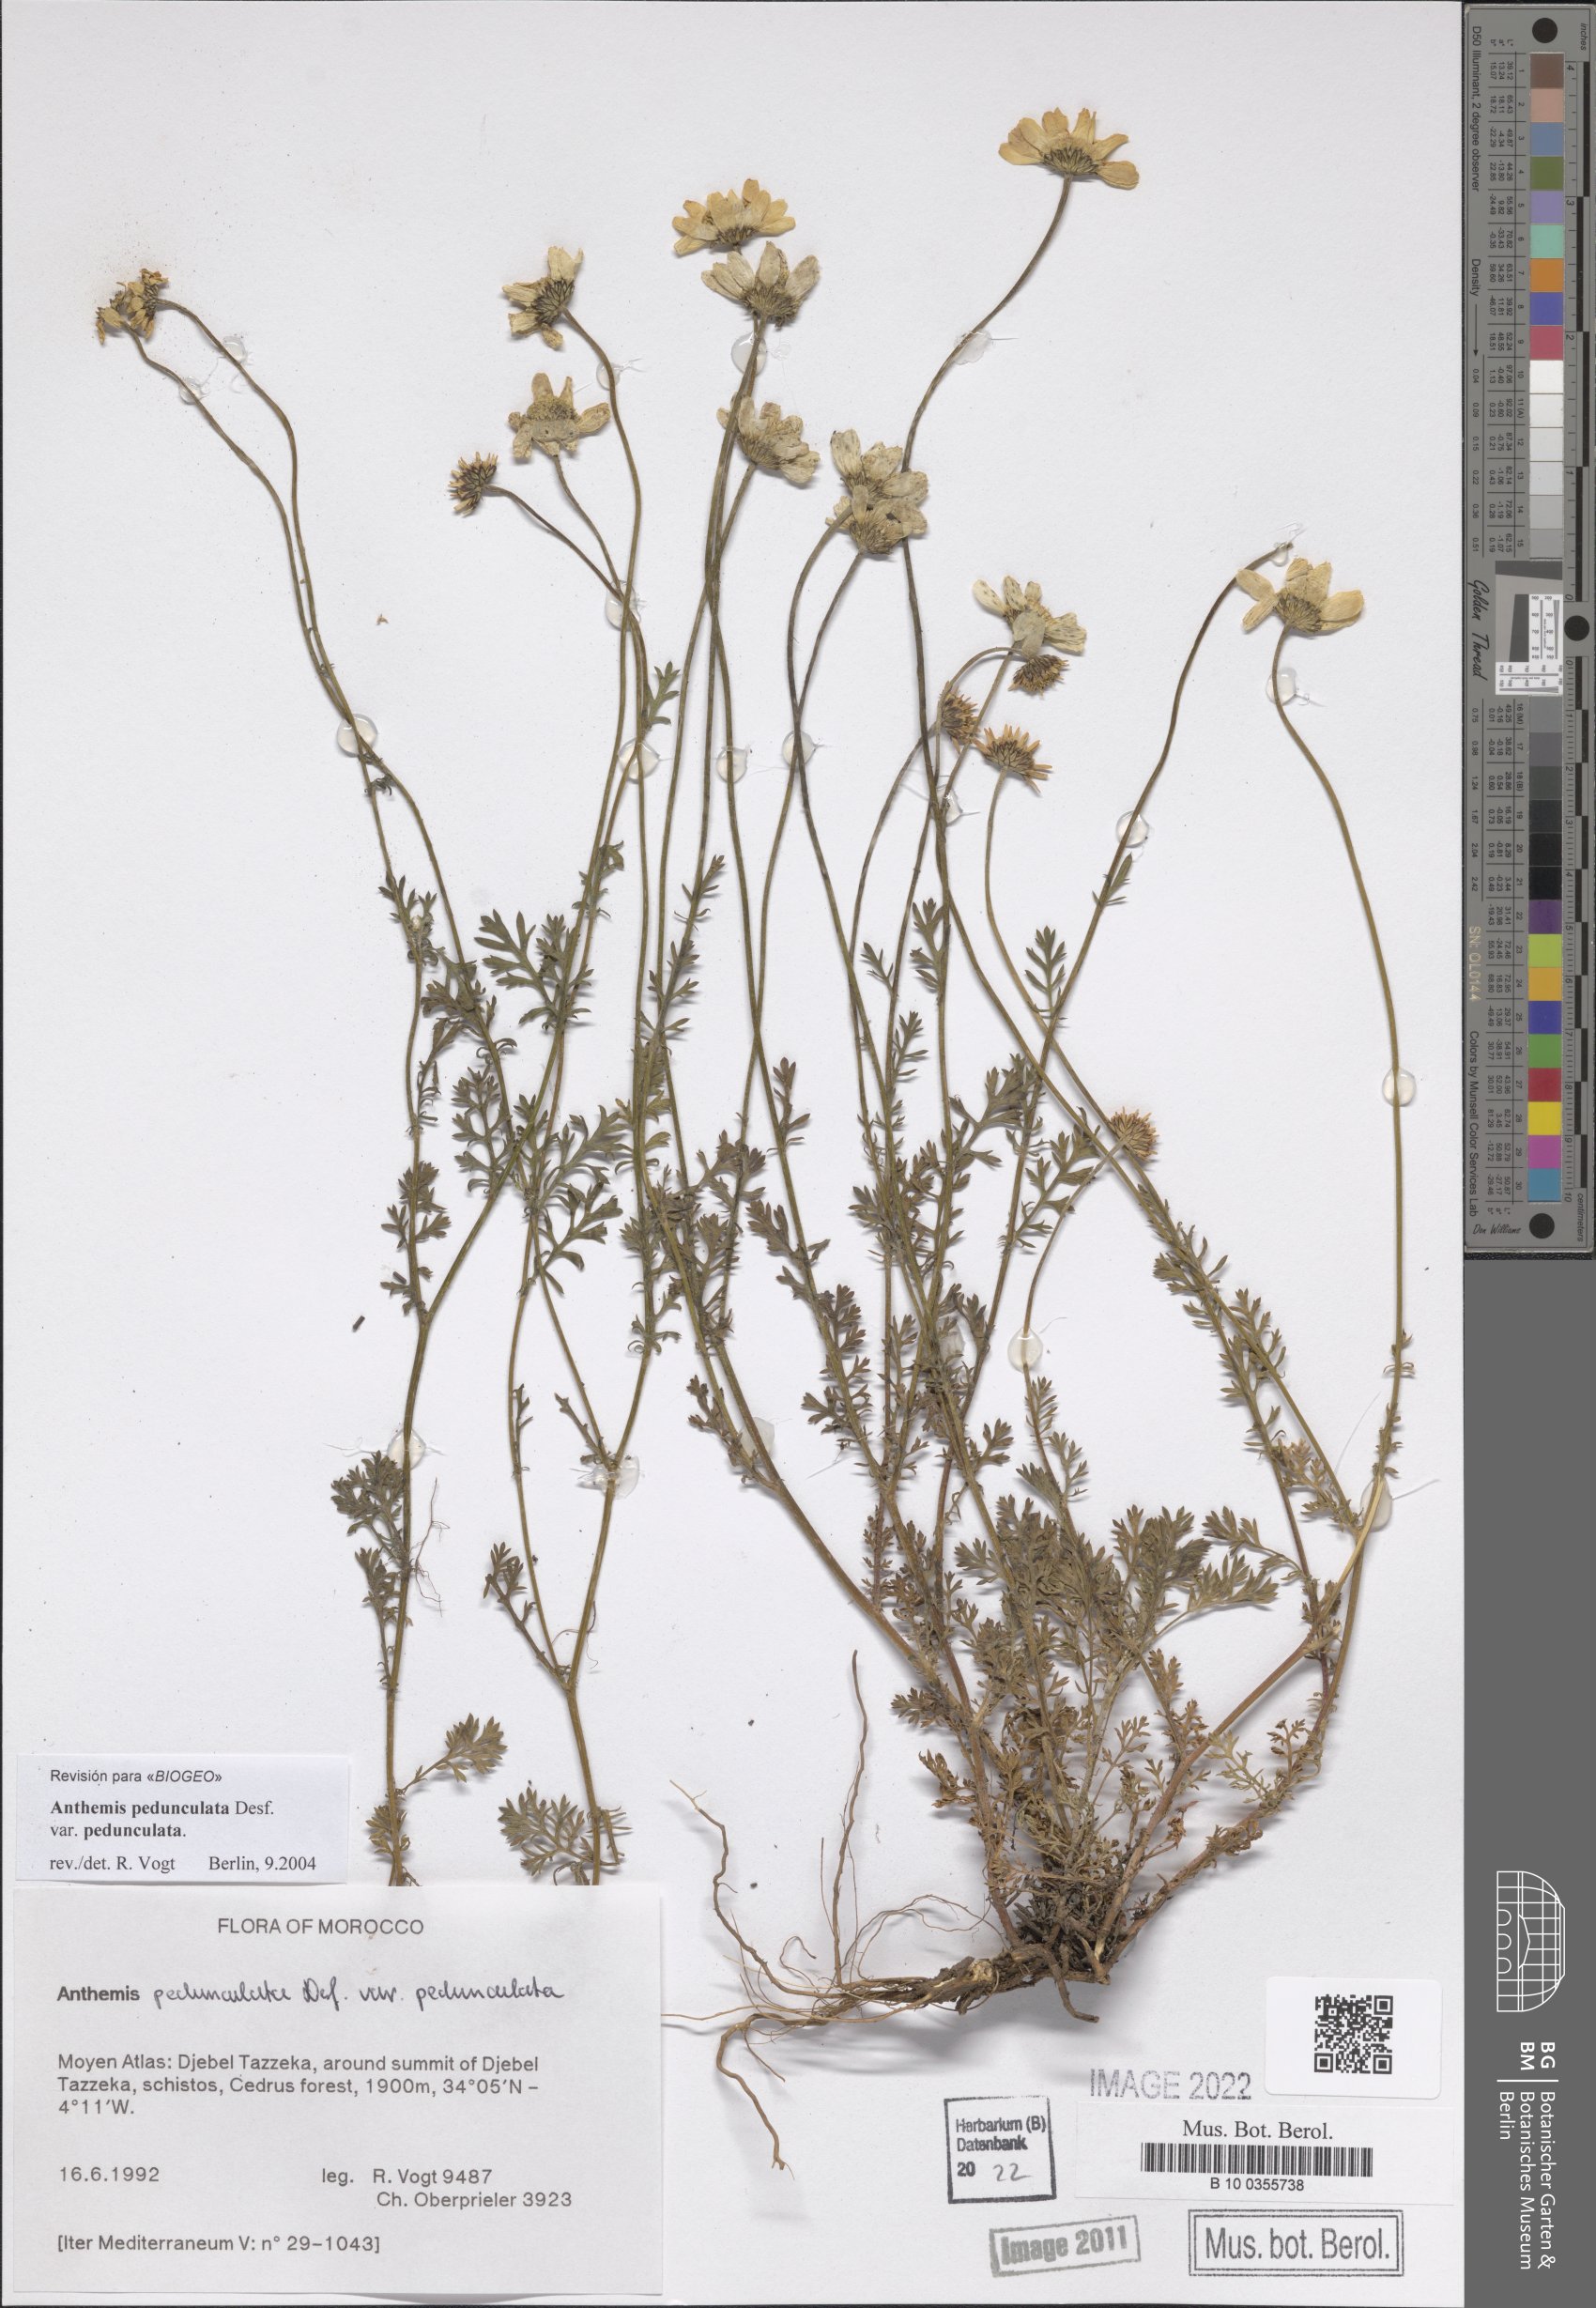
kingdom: Plantae
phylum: Tracheophyta
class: Magnoliopsida
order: Asterales
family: Asteraceae
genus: Anthemis
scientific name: Anthemis pedunculata
